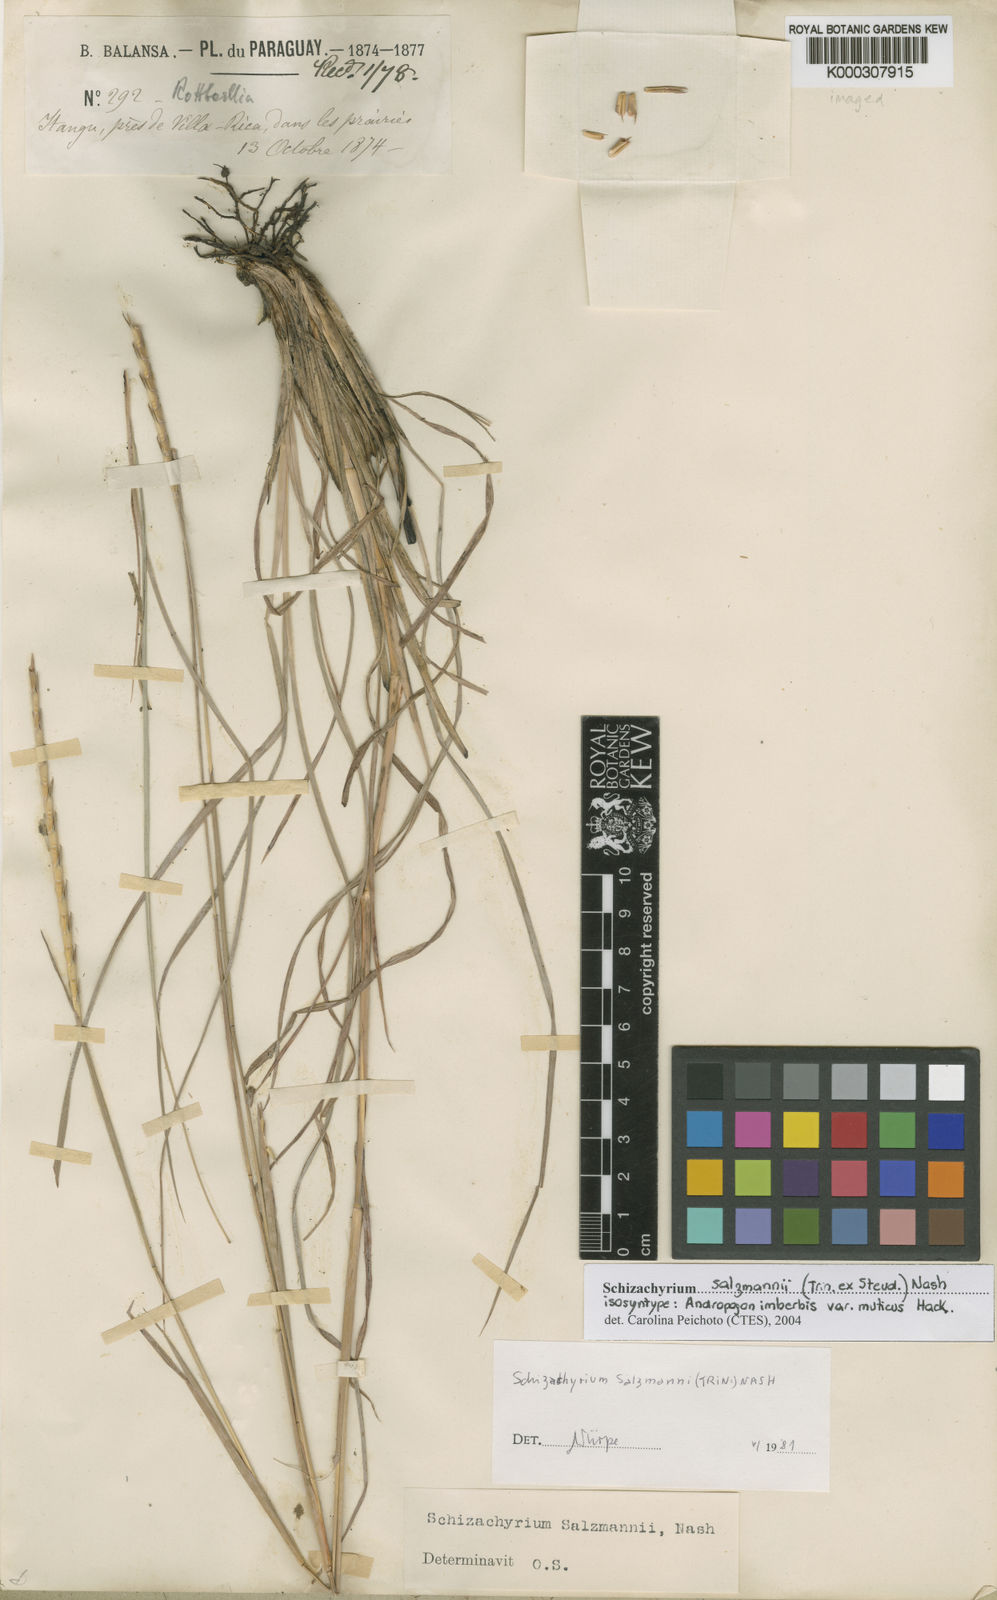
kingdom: Plantae
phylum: Tracheophyta
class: Liliopsida
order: Poales
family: Poaceae
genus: Andropogon
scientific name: Andropogon salzmannii
